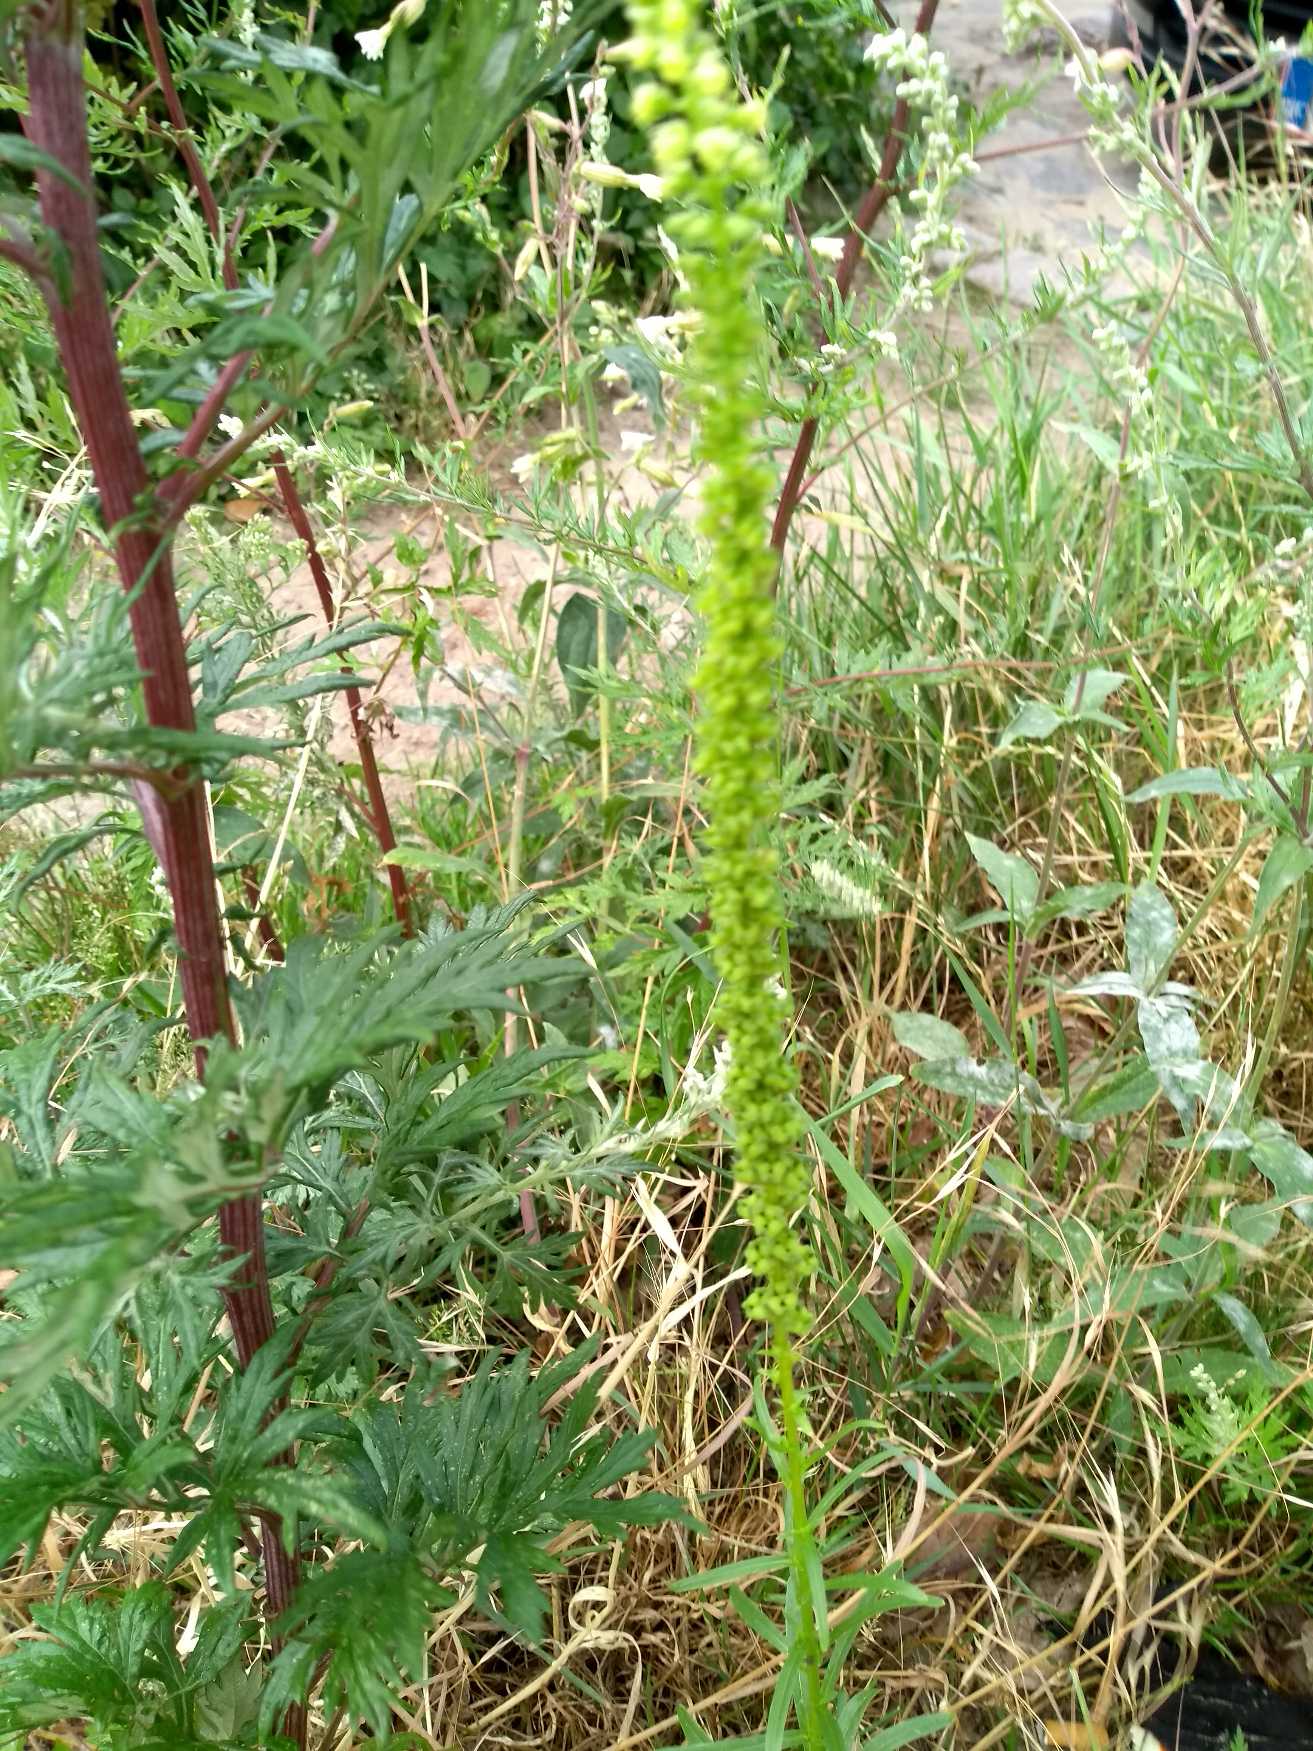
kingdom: Plantae
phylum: Tracheophyta
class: Magnoliopsida
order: Brassicales
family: Resedaceae
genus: Reseda
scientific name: Reseda luteola
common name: Farve-reseda
